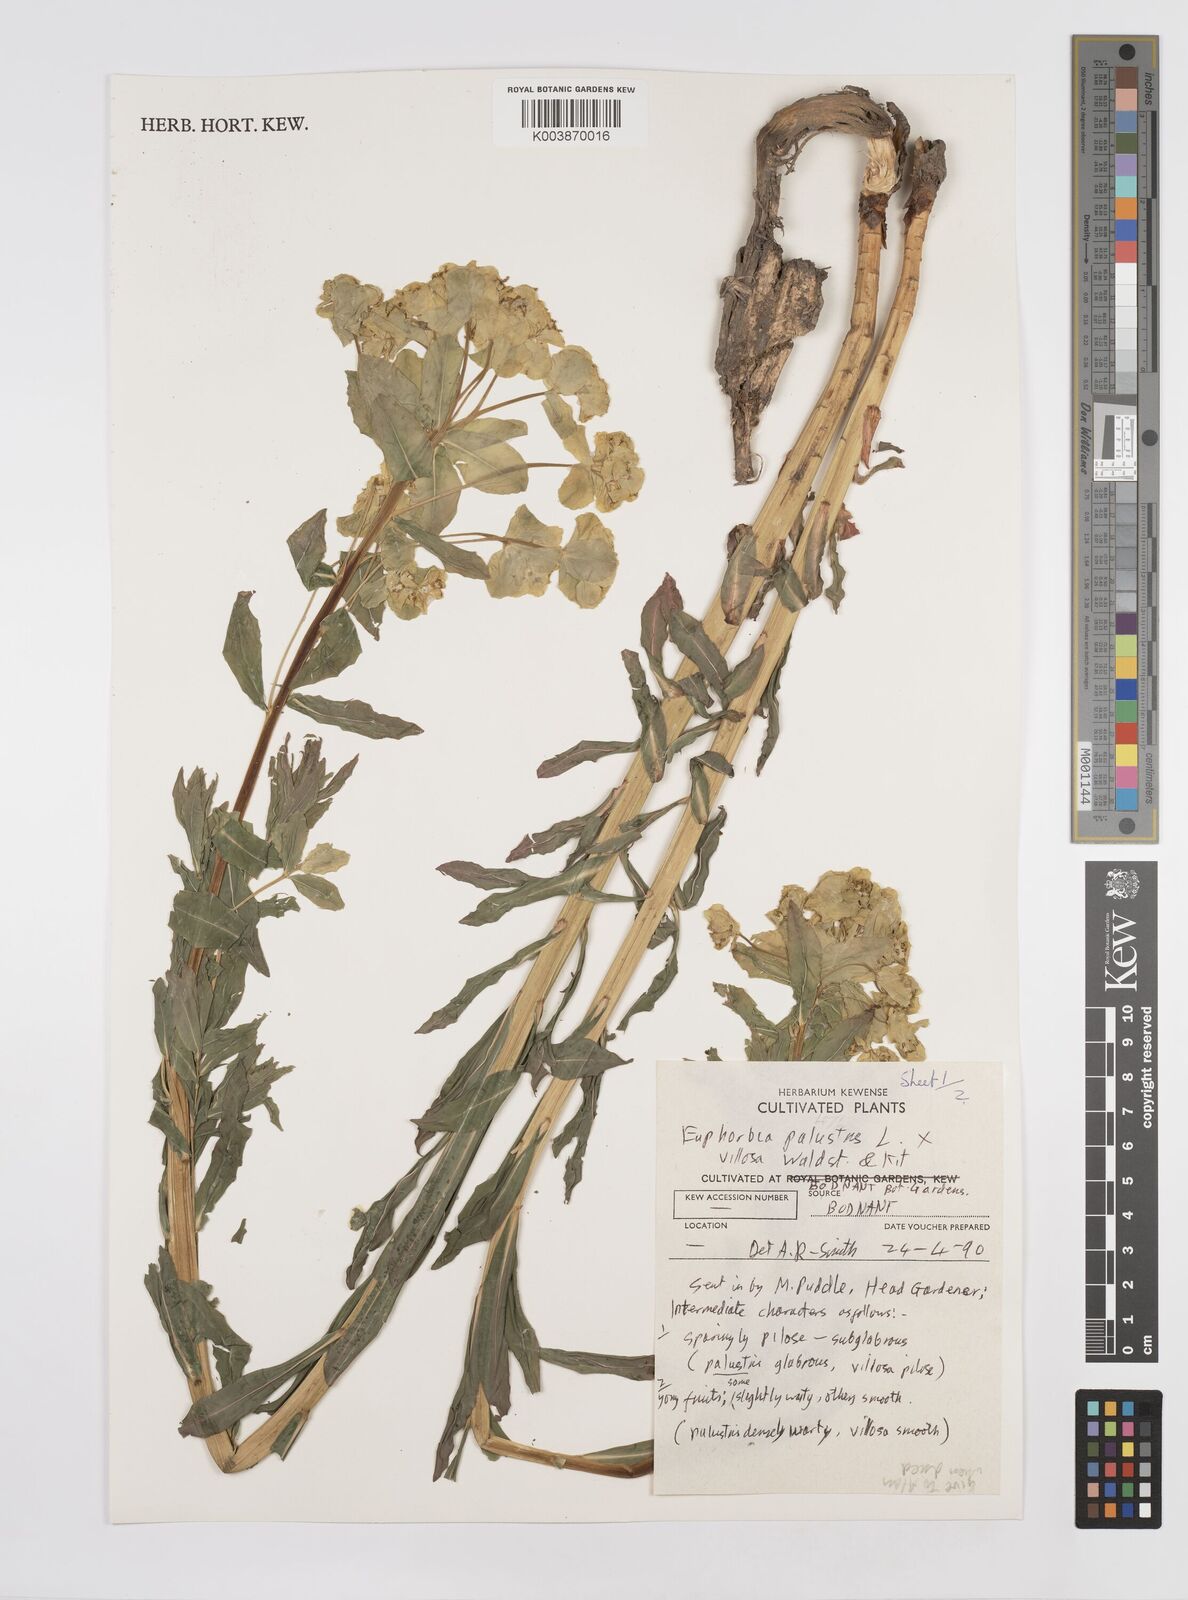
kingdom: Plantae
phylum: Tracheophyta
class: Magnoliopsida
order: Malpighiales
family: Euphorbiaceae
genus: Euphorbia
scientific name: Euphorbia palustris
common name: Marsh spurge
